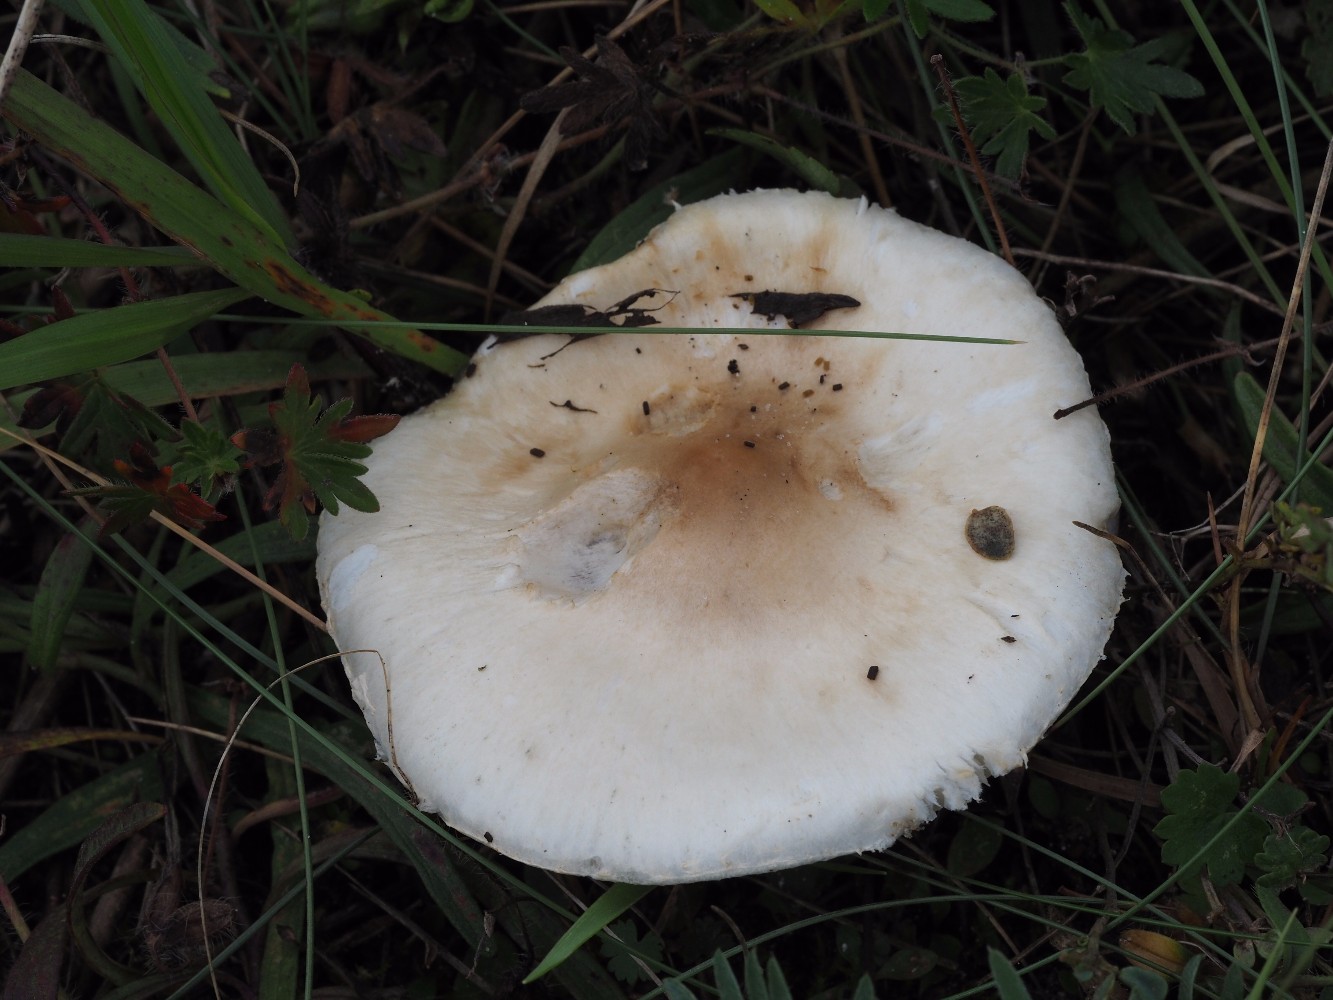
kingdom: Fungi
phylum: Basidiomycota
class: Agaricomycetes
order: Agaricales
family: Agaricaceae
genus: Lepiota
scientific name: Lepiota erminea
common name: hvid parasolhat
